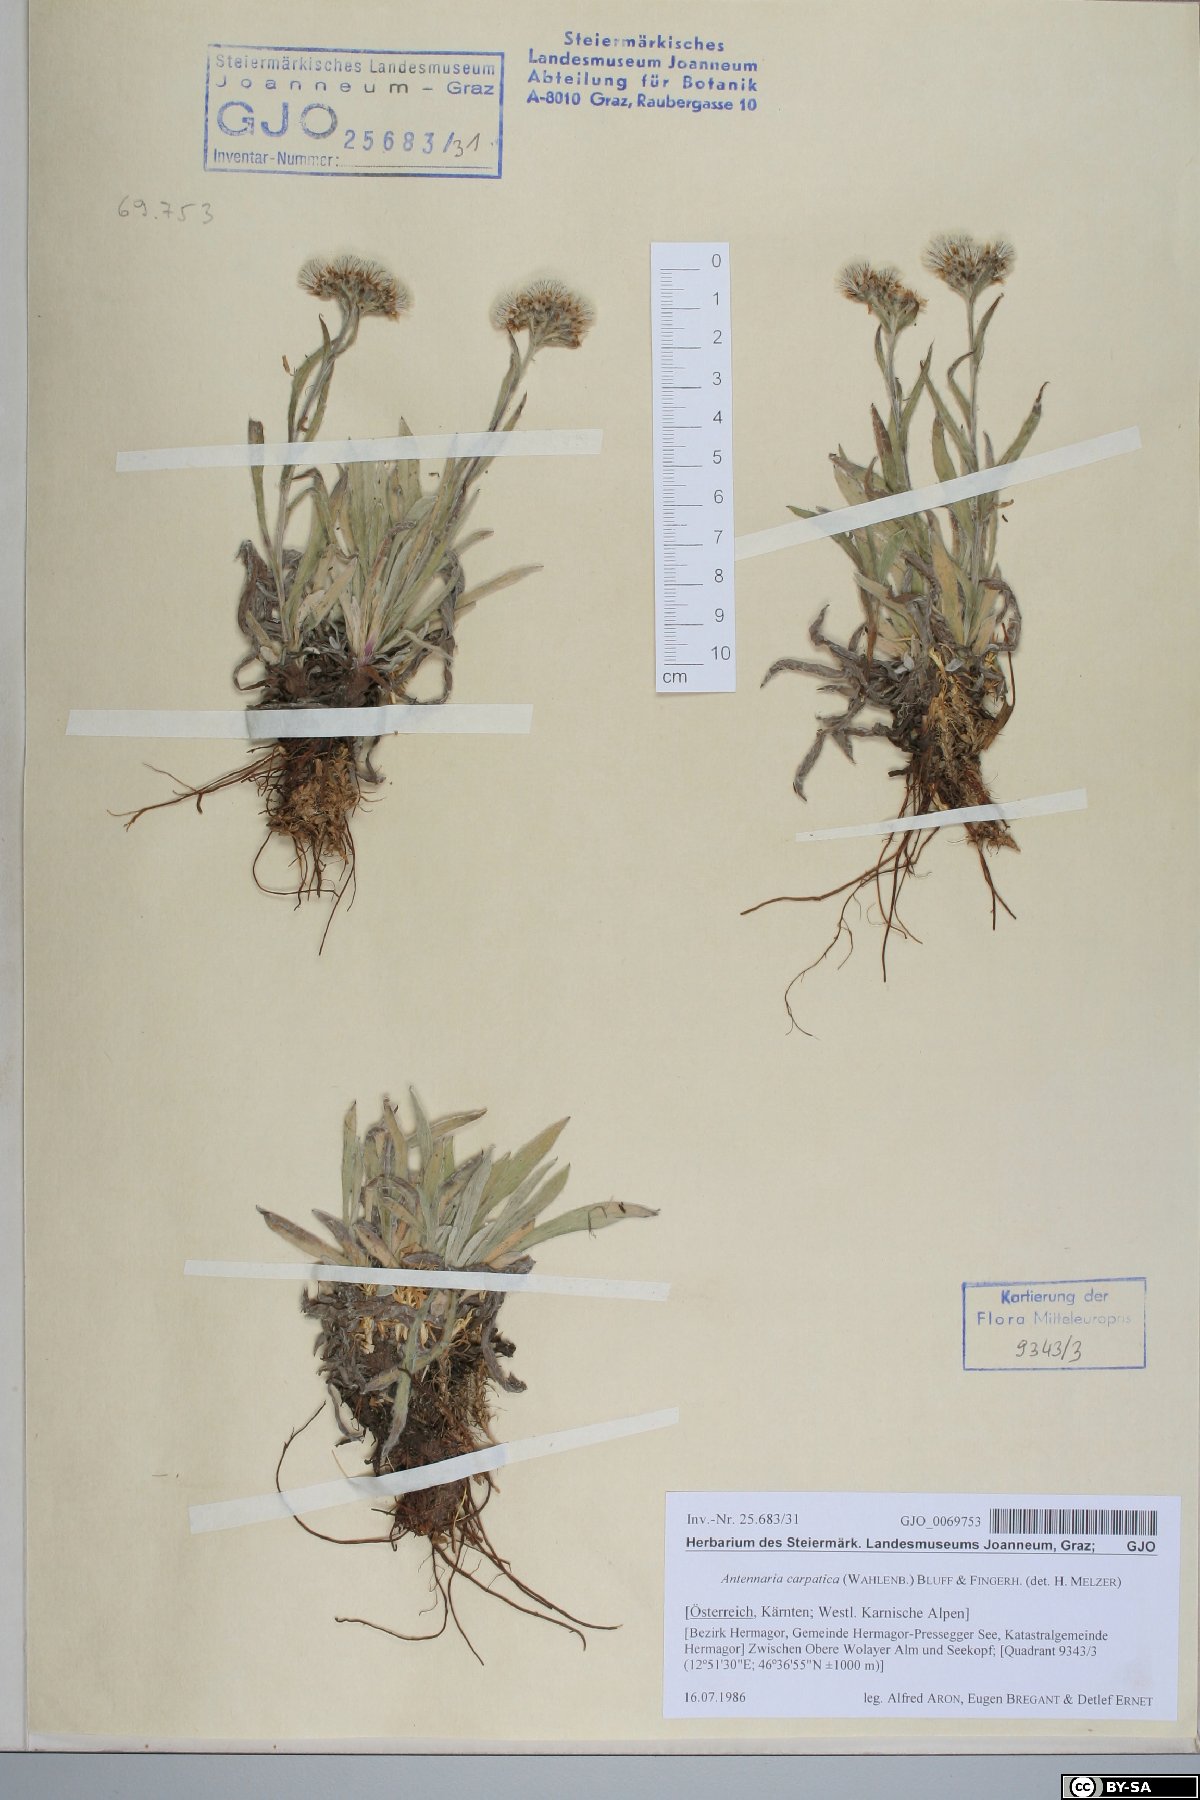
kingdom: Plantae
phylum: Tracheophyta
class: Magnoliopsida
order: Asterales
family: Asteraceae
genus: Antennaria
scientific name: Antennaria carpatica
